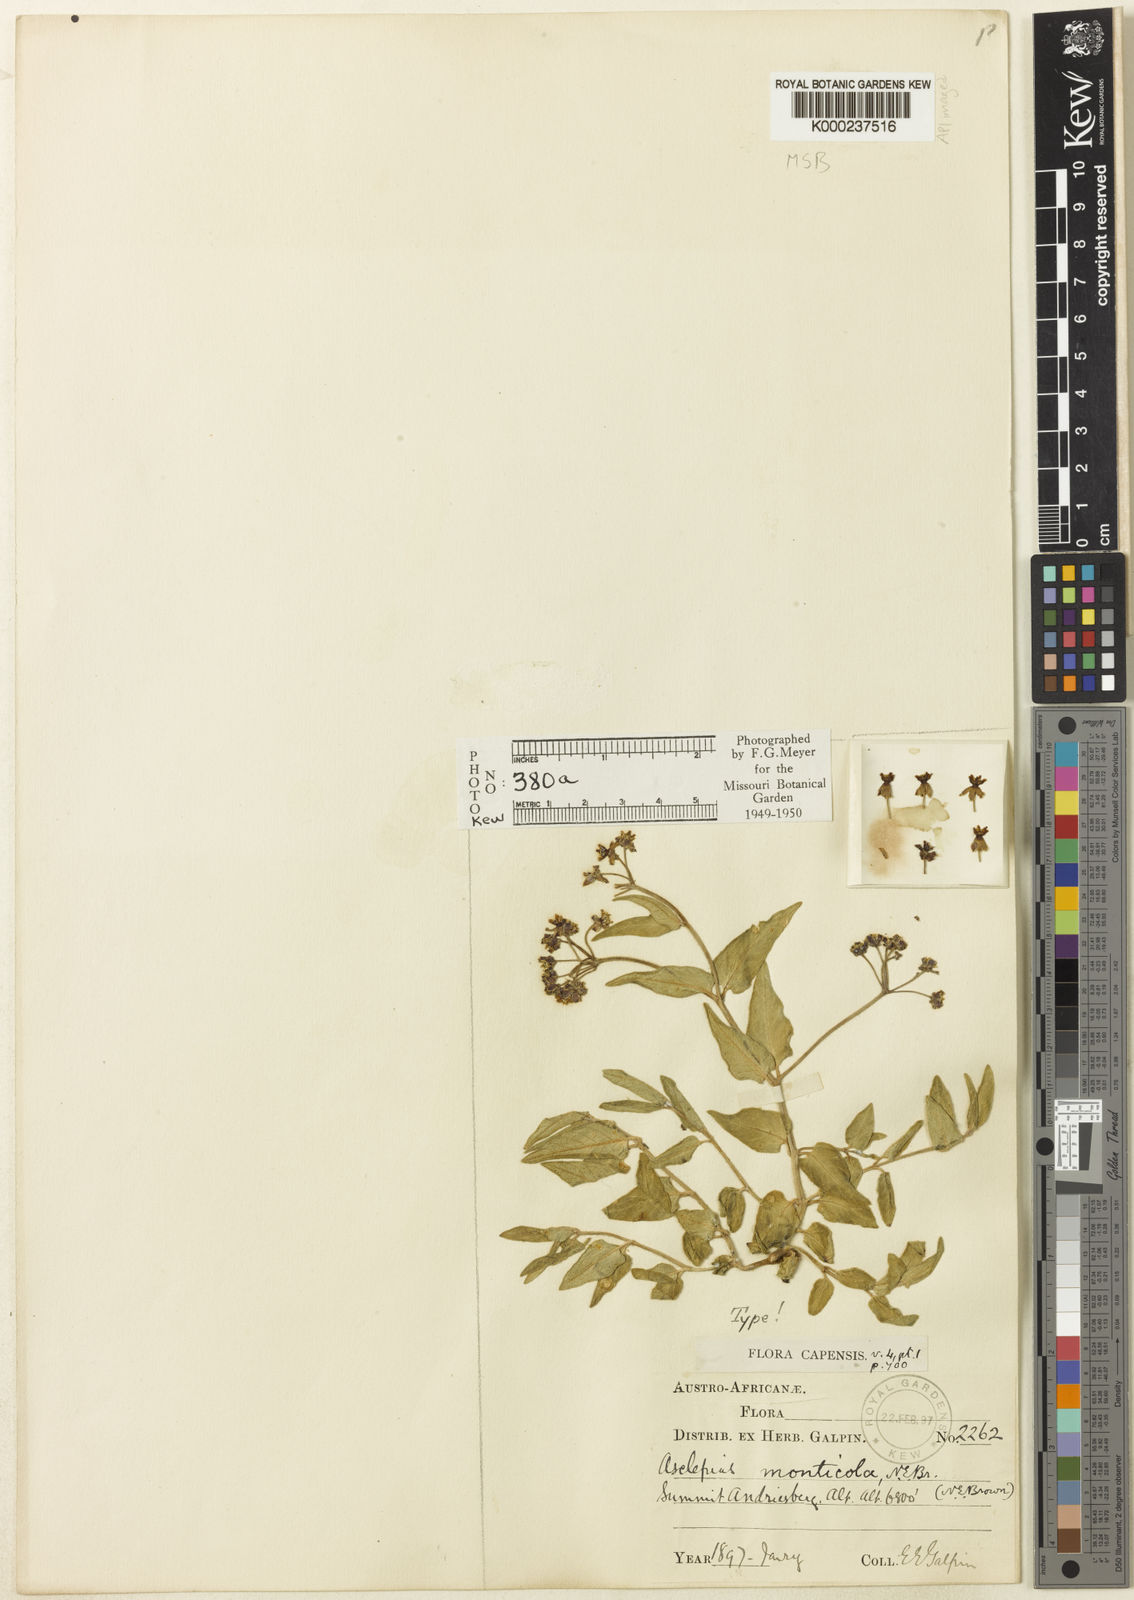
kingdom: Plantae
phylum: Tracheophyta
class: Magnoliopsida
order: Gentianales
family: Apocynaceae
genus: Asclepias
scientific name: Asclepias monticola
